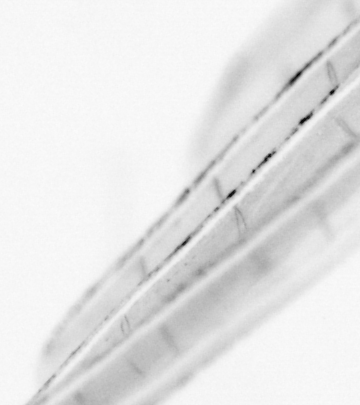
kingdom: Animalia
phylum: Chordata
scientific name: Chordata
